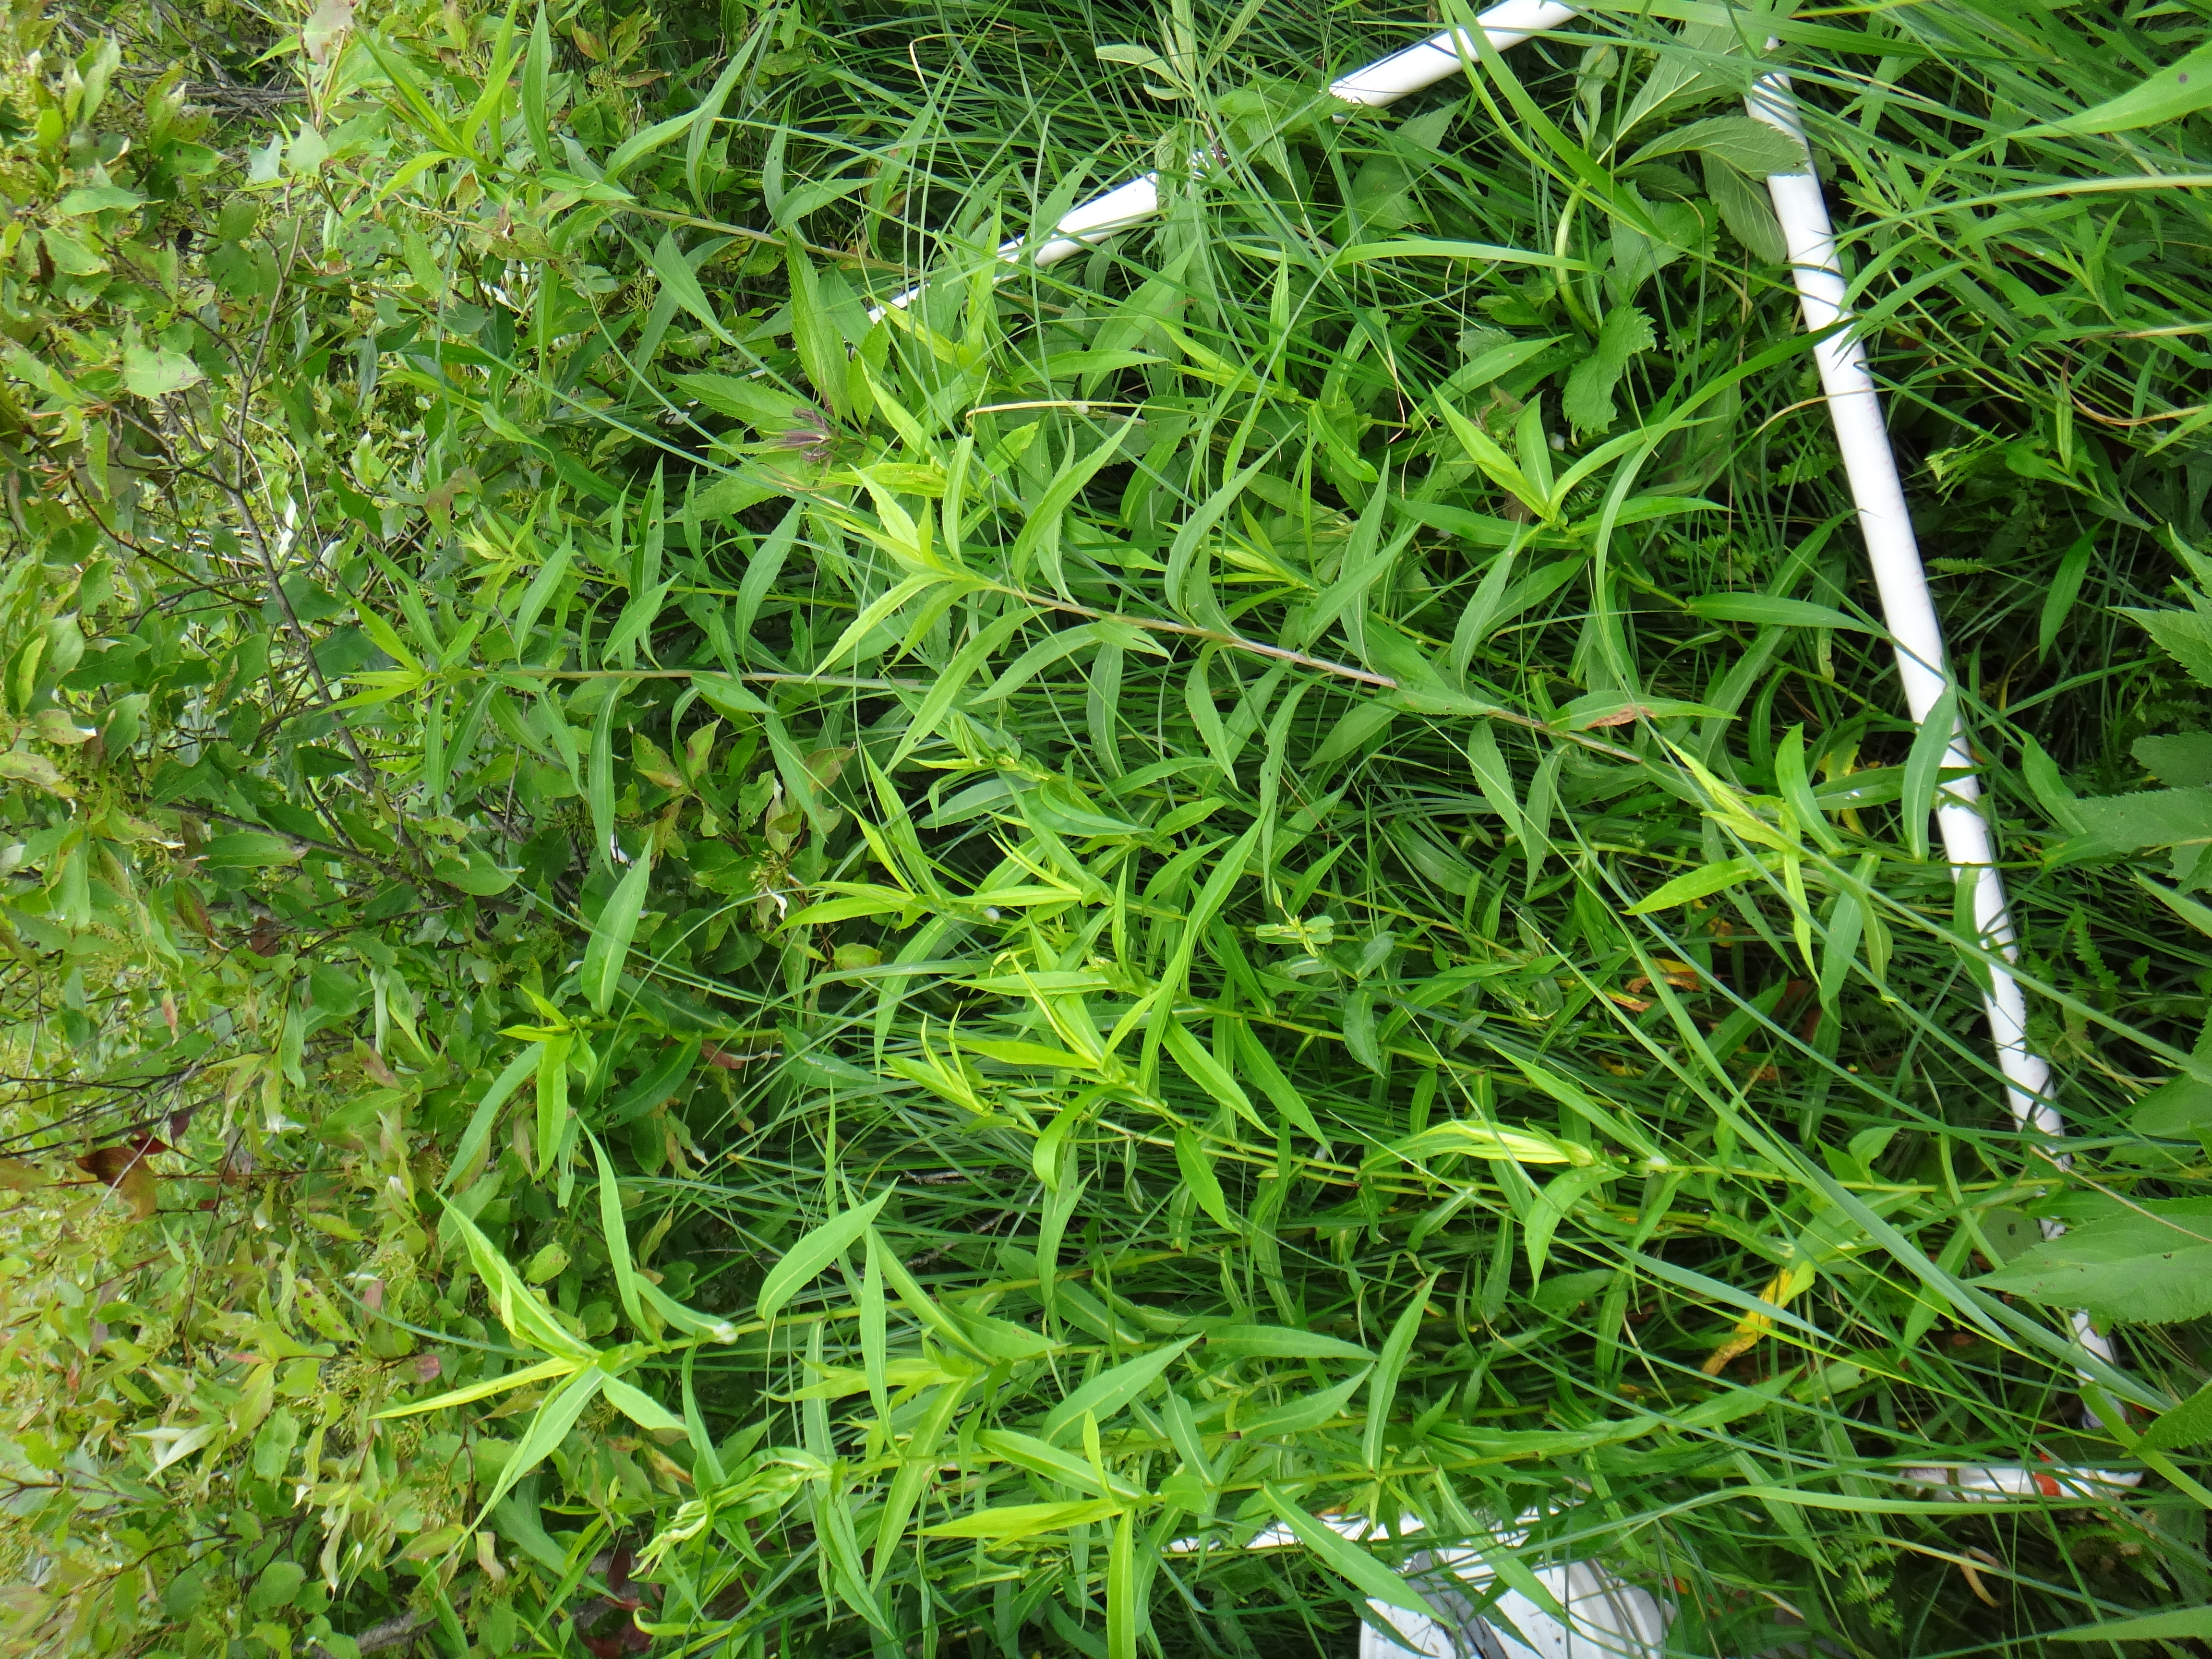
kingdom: Plantae
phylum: Tracheophyta
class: Liliopsida
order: Poales
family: Cyperaceae
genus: Carex
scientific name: Carex buxbaumii
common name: Club sedge
